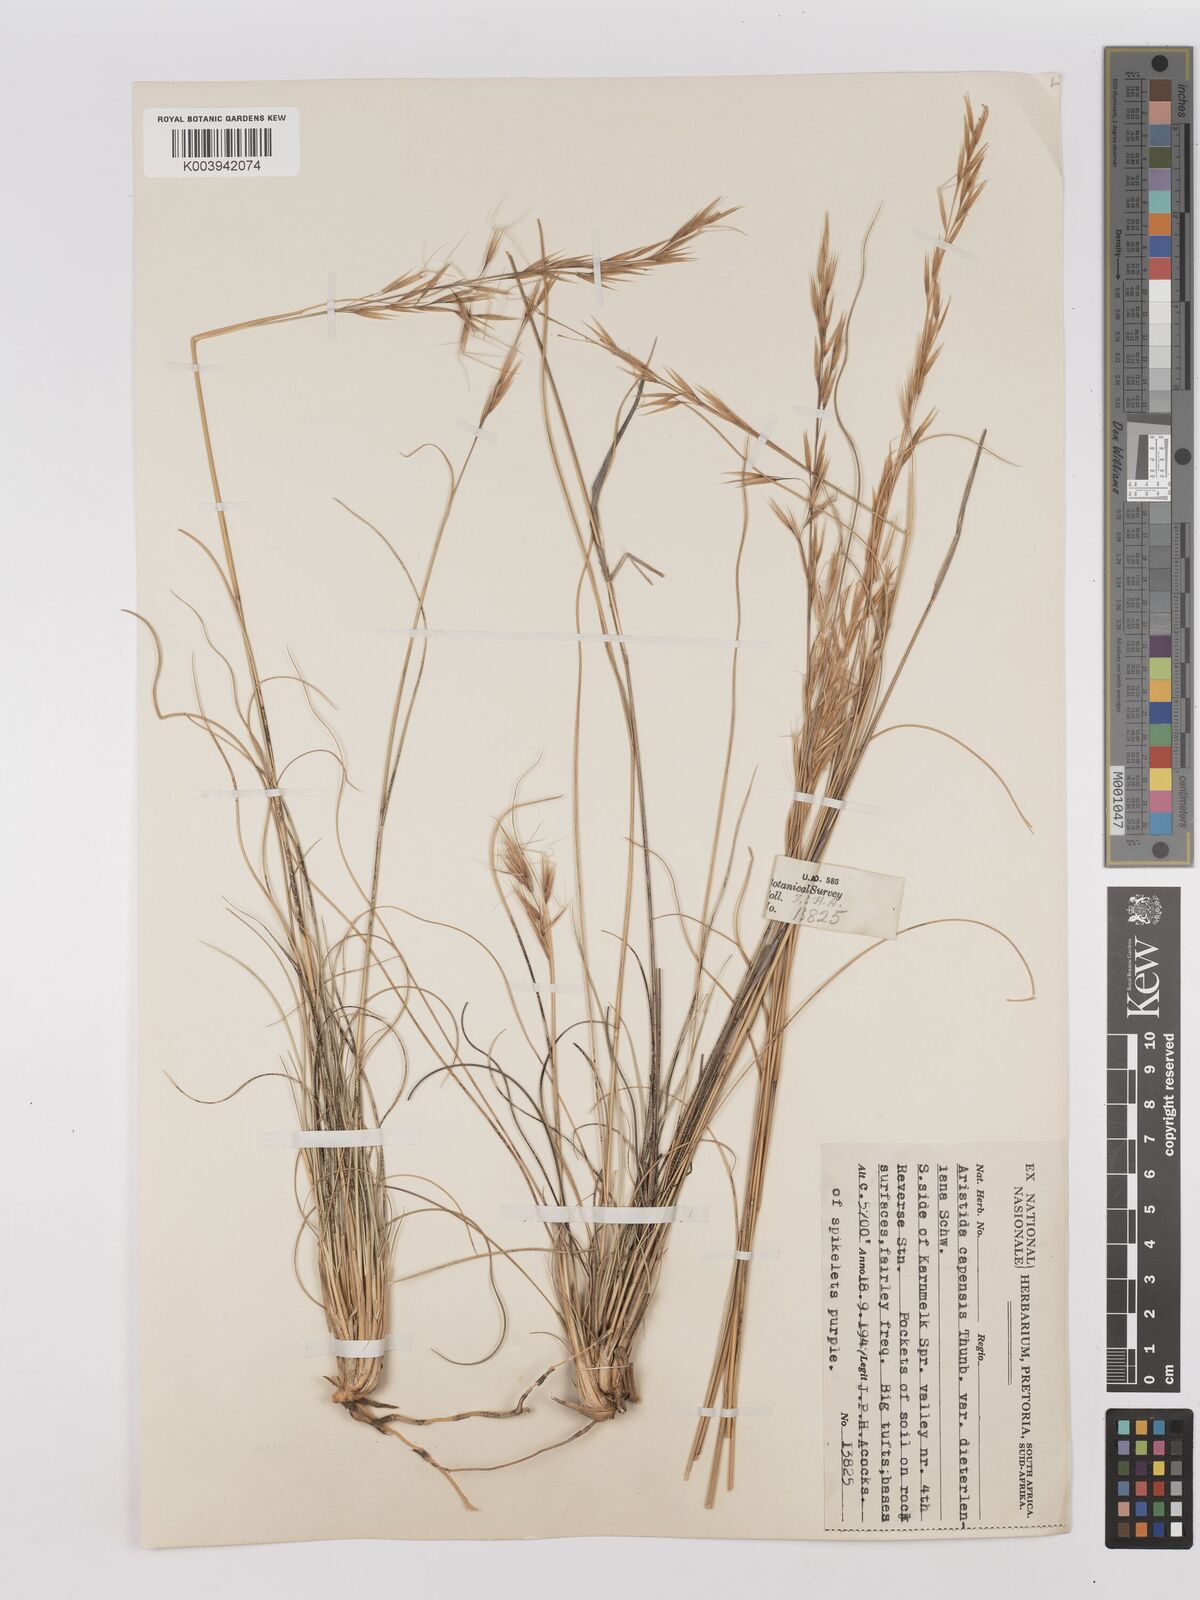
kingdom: Plantae
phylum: Tracheophyta
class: Liliopsida
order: Poales
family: Poaceae
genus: Stipagrostis
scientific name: Stipagrostis zeyheri
